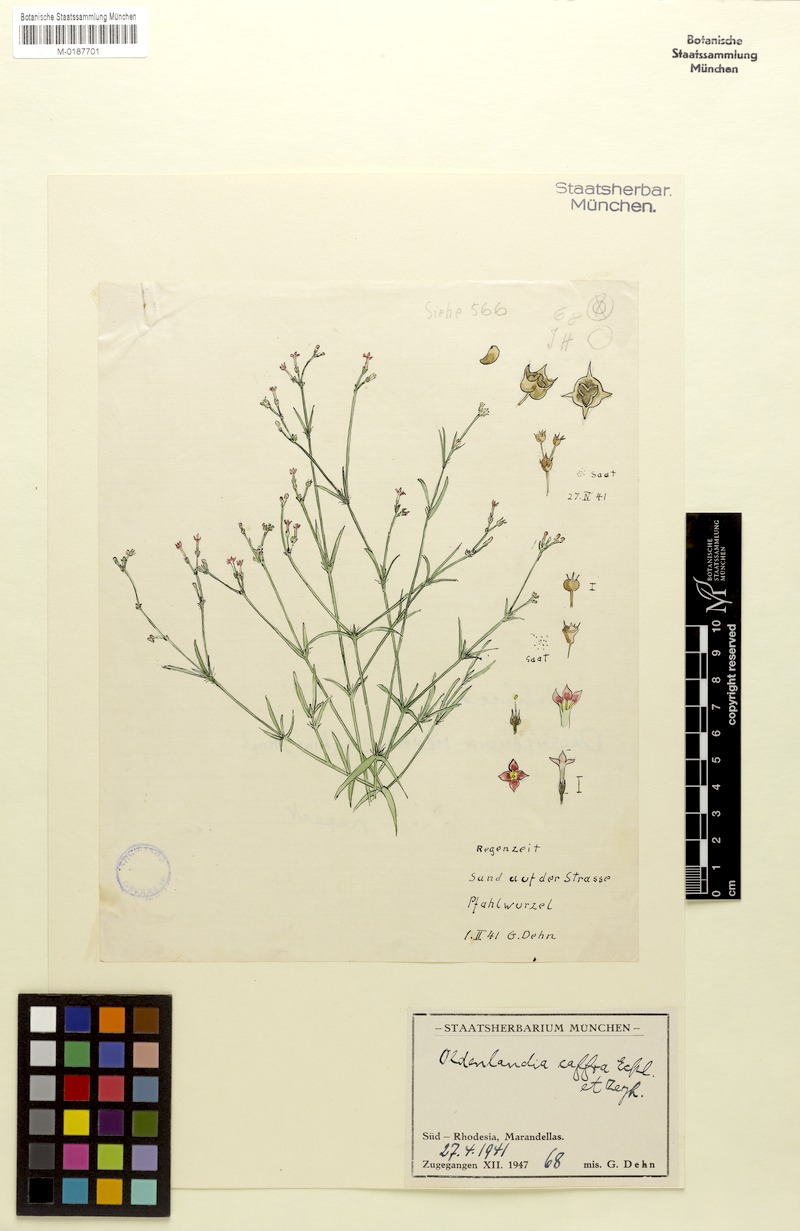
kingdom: Plantae
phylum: Tracheophyta
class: Magnoliopsida
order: Gentianales
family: Rubiaceae
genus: Cordylostigma
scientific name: Cordylostigma virgatum
